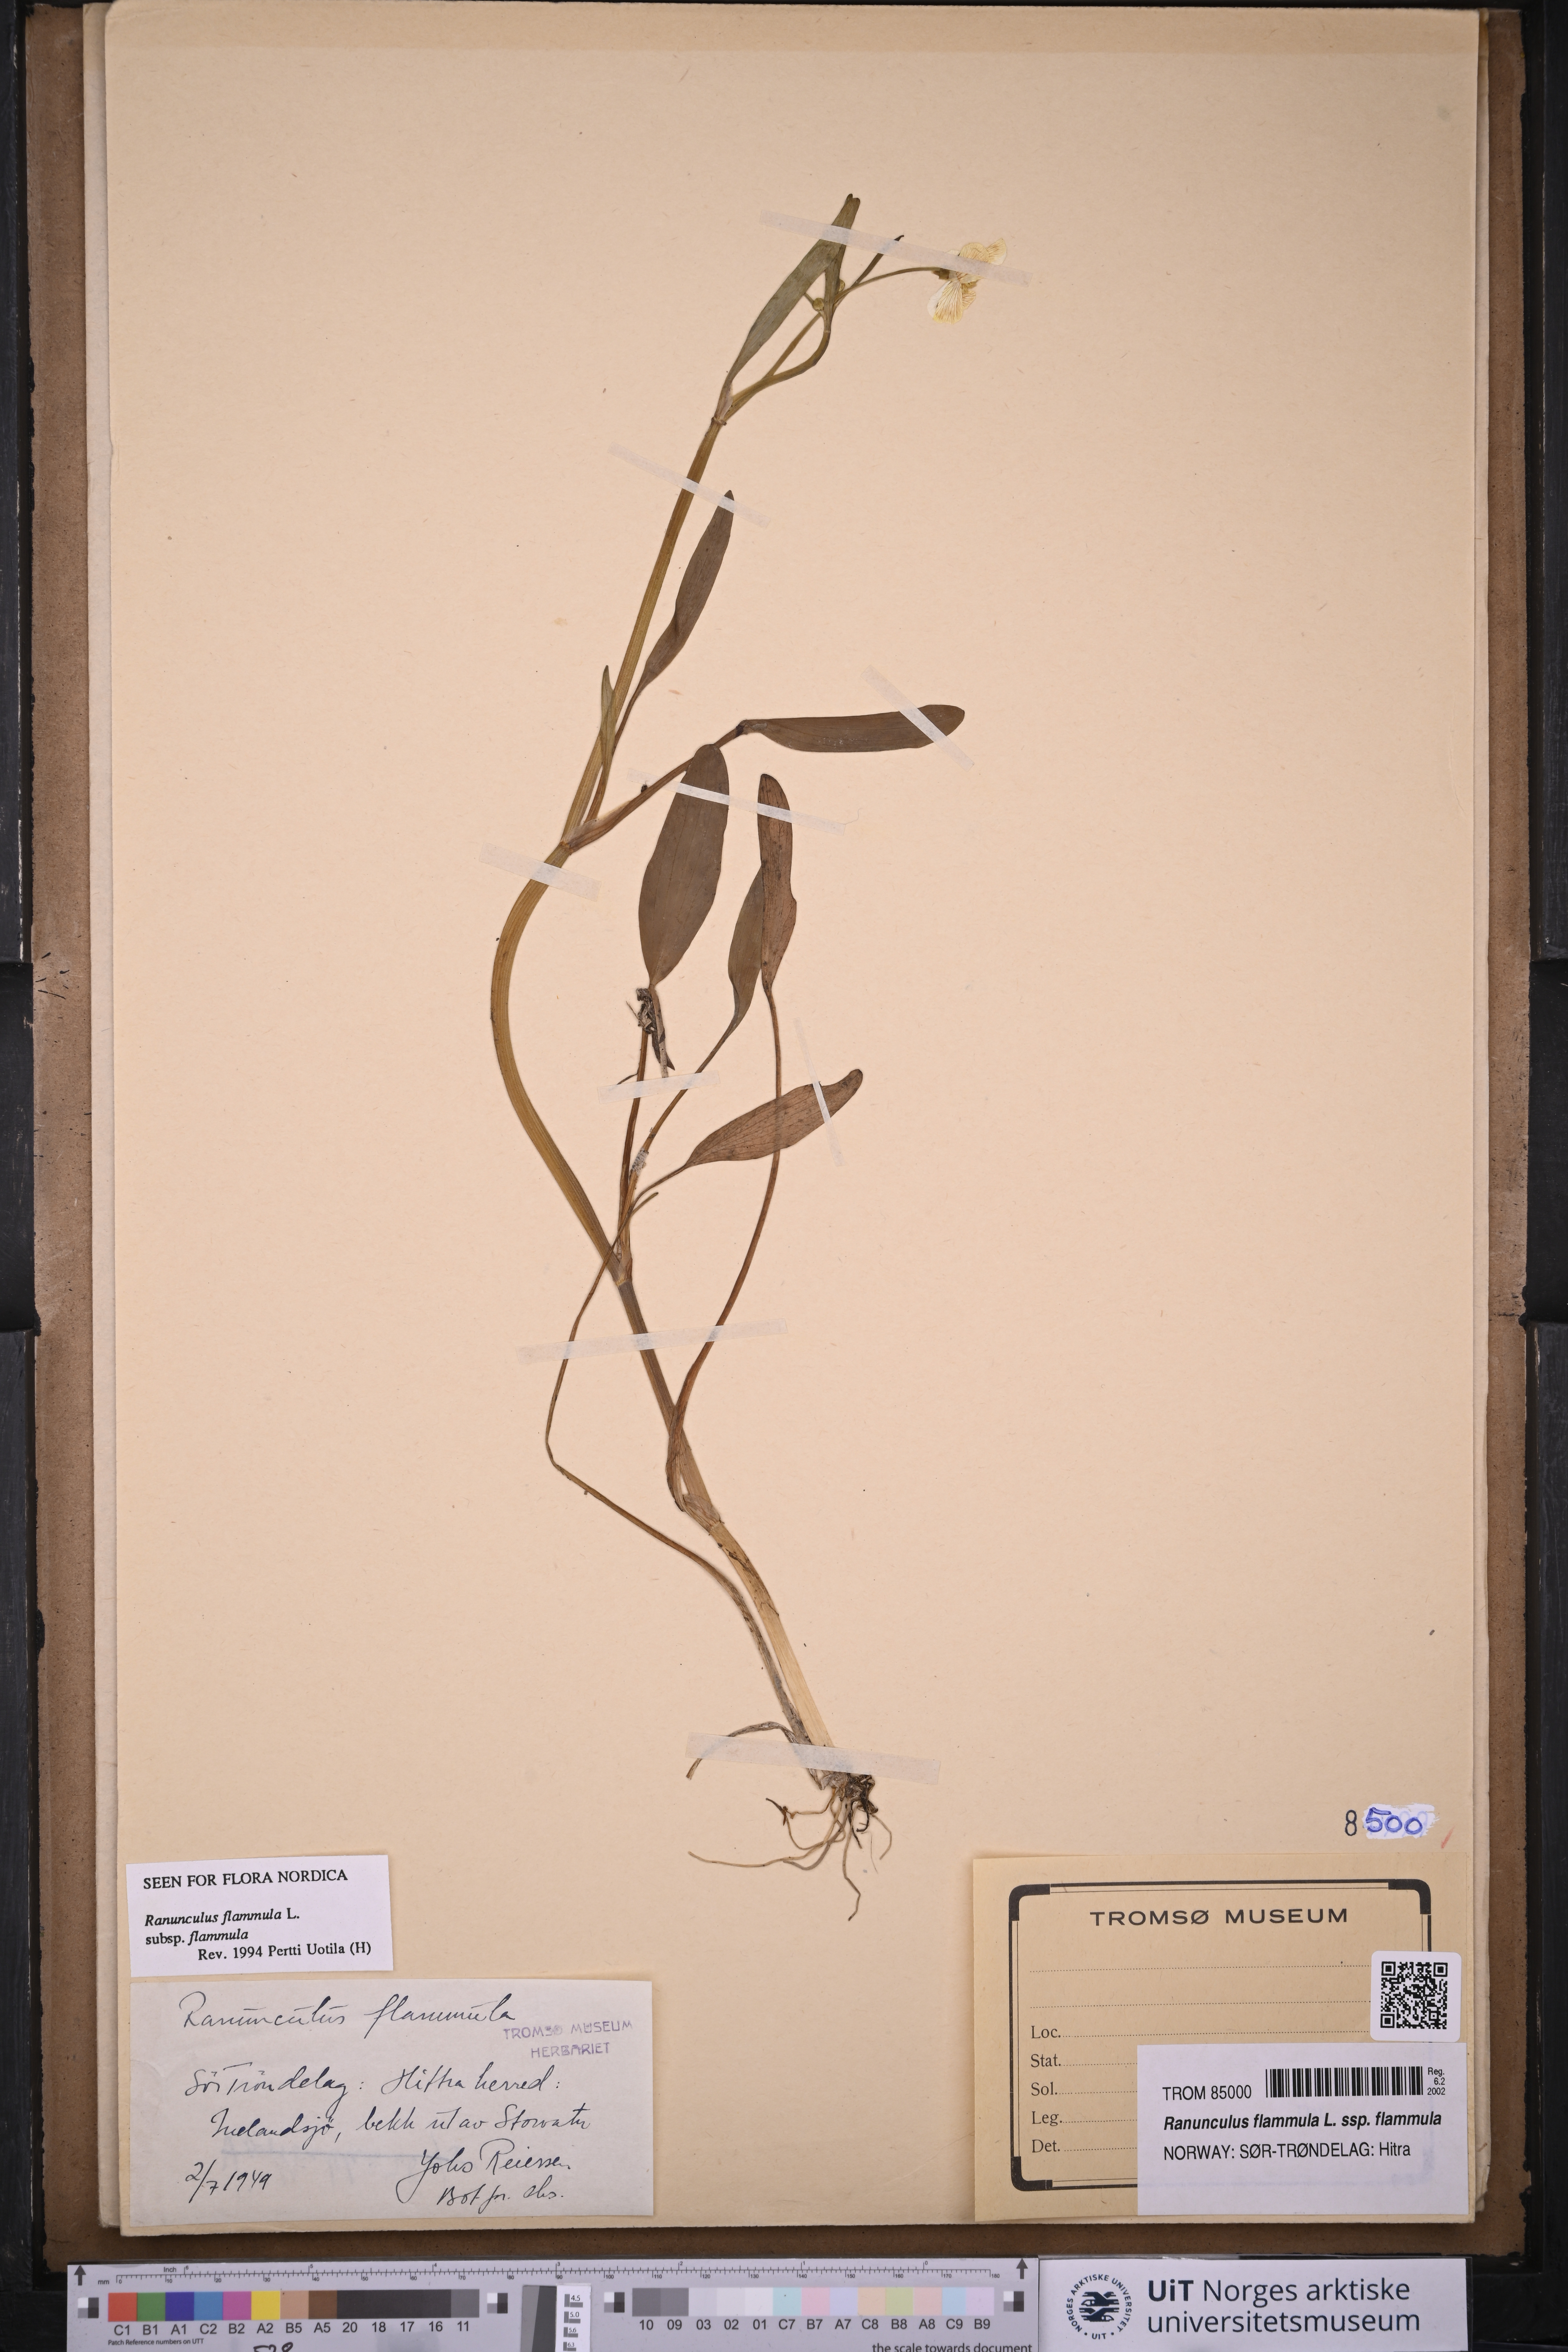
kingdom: Plantae
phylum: Tracheophyta
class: Magnoliopsida
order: Ranunculales
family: Ranunculaceae
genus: Ranunculus
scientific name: Ranunculus flammula
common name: Lesser spearwort
